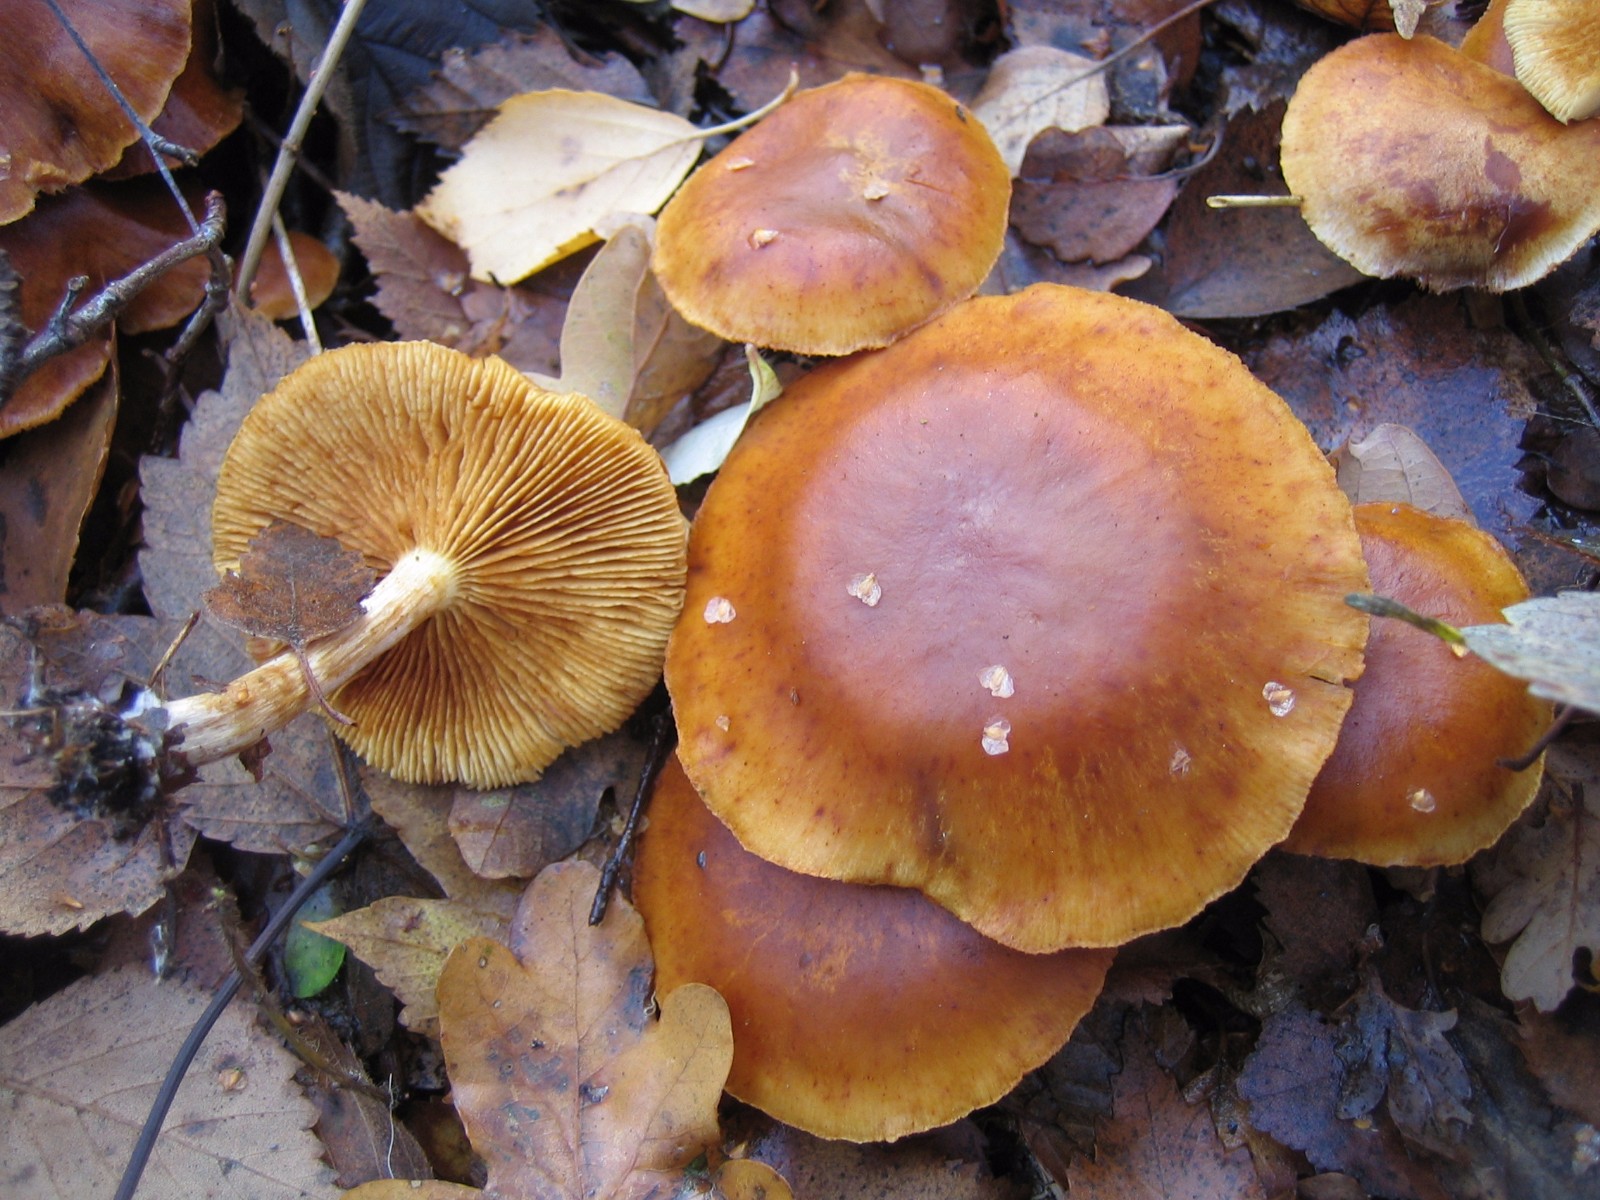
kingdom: Fungi
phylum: Basidiomycota
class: Agaricomycetes
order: Agaricales
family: Hymenogastraceae
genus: Gymnopilus
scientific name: Gymnopilus penetrans
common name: plettet flammehat
